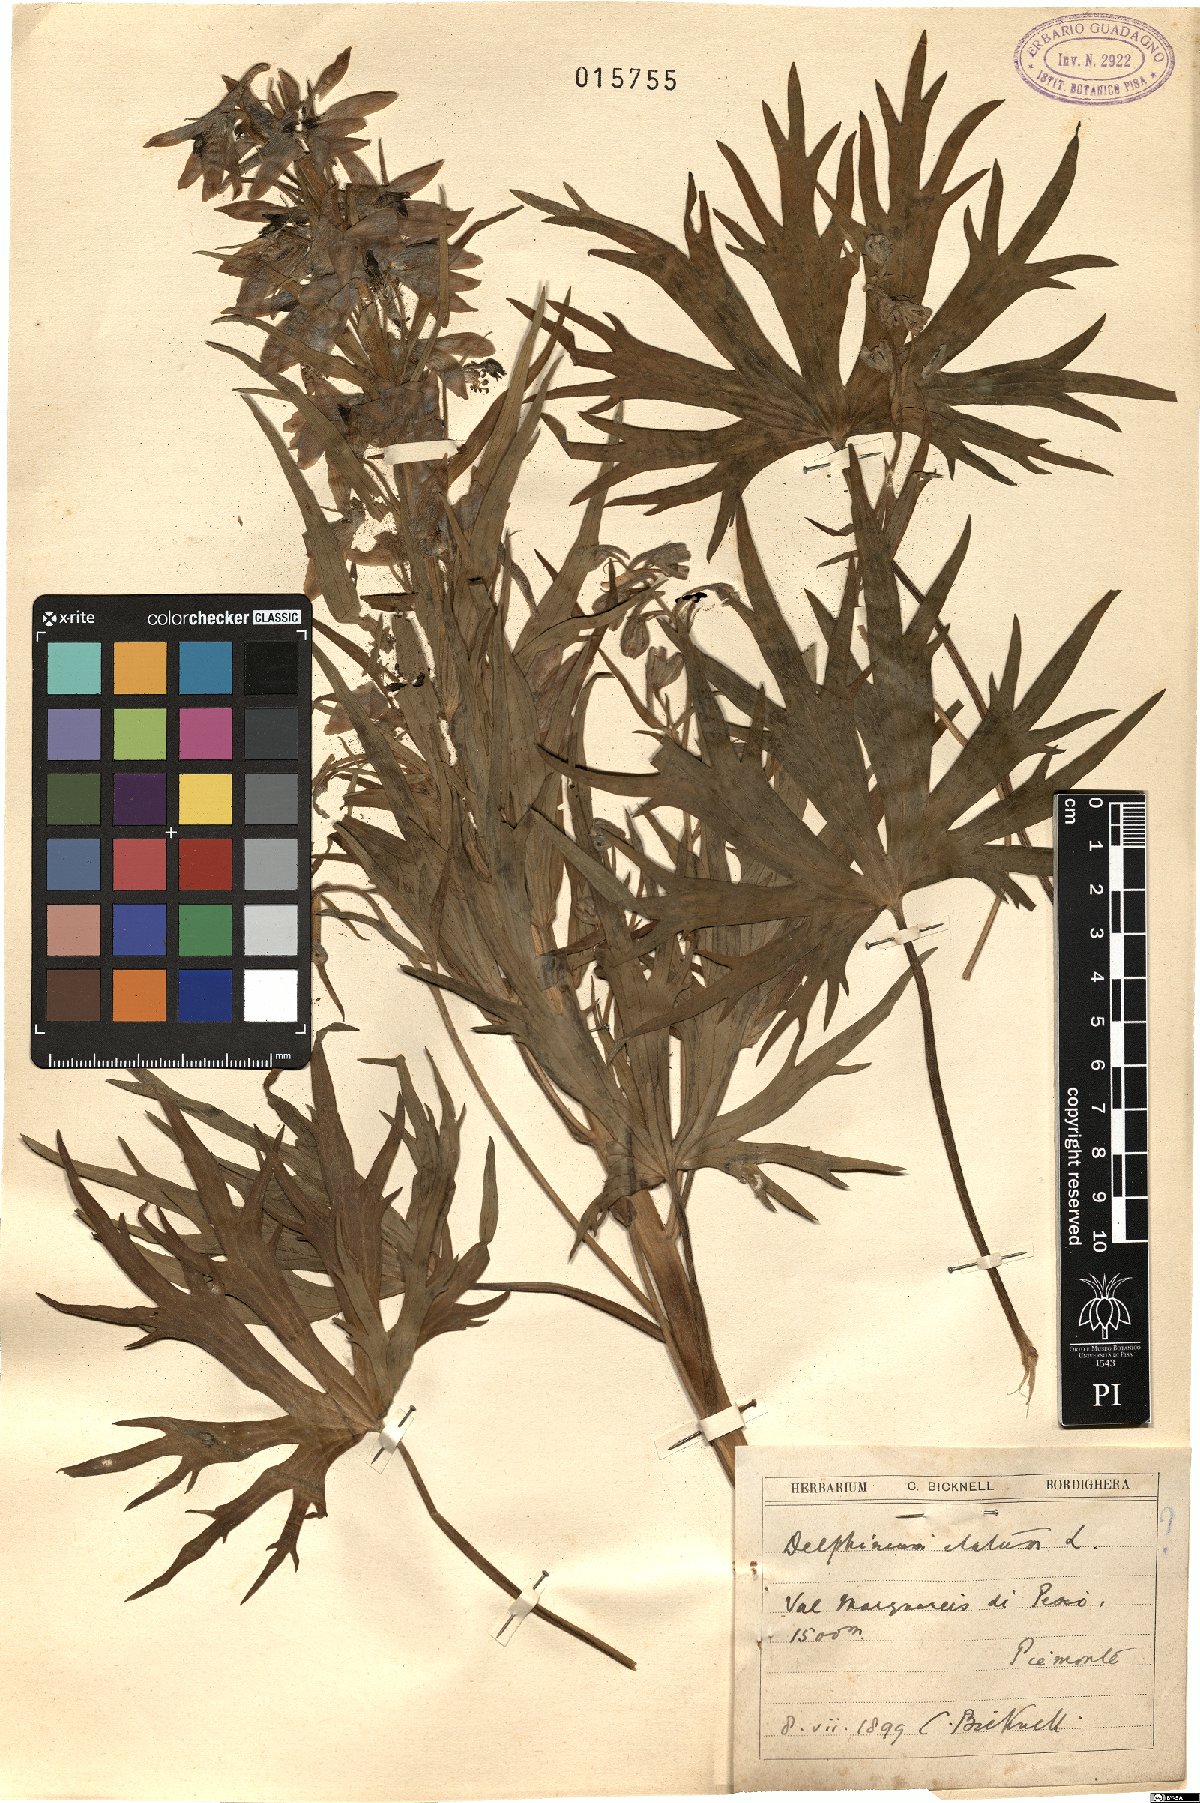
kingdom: Plantae
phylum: Tracheophyta
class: Magnoliopsida
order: Ranunculales
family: Ranunculaceae
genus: Delphinium
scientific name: Delphinium elatum
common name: Candle larkspur
